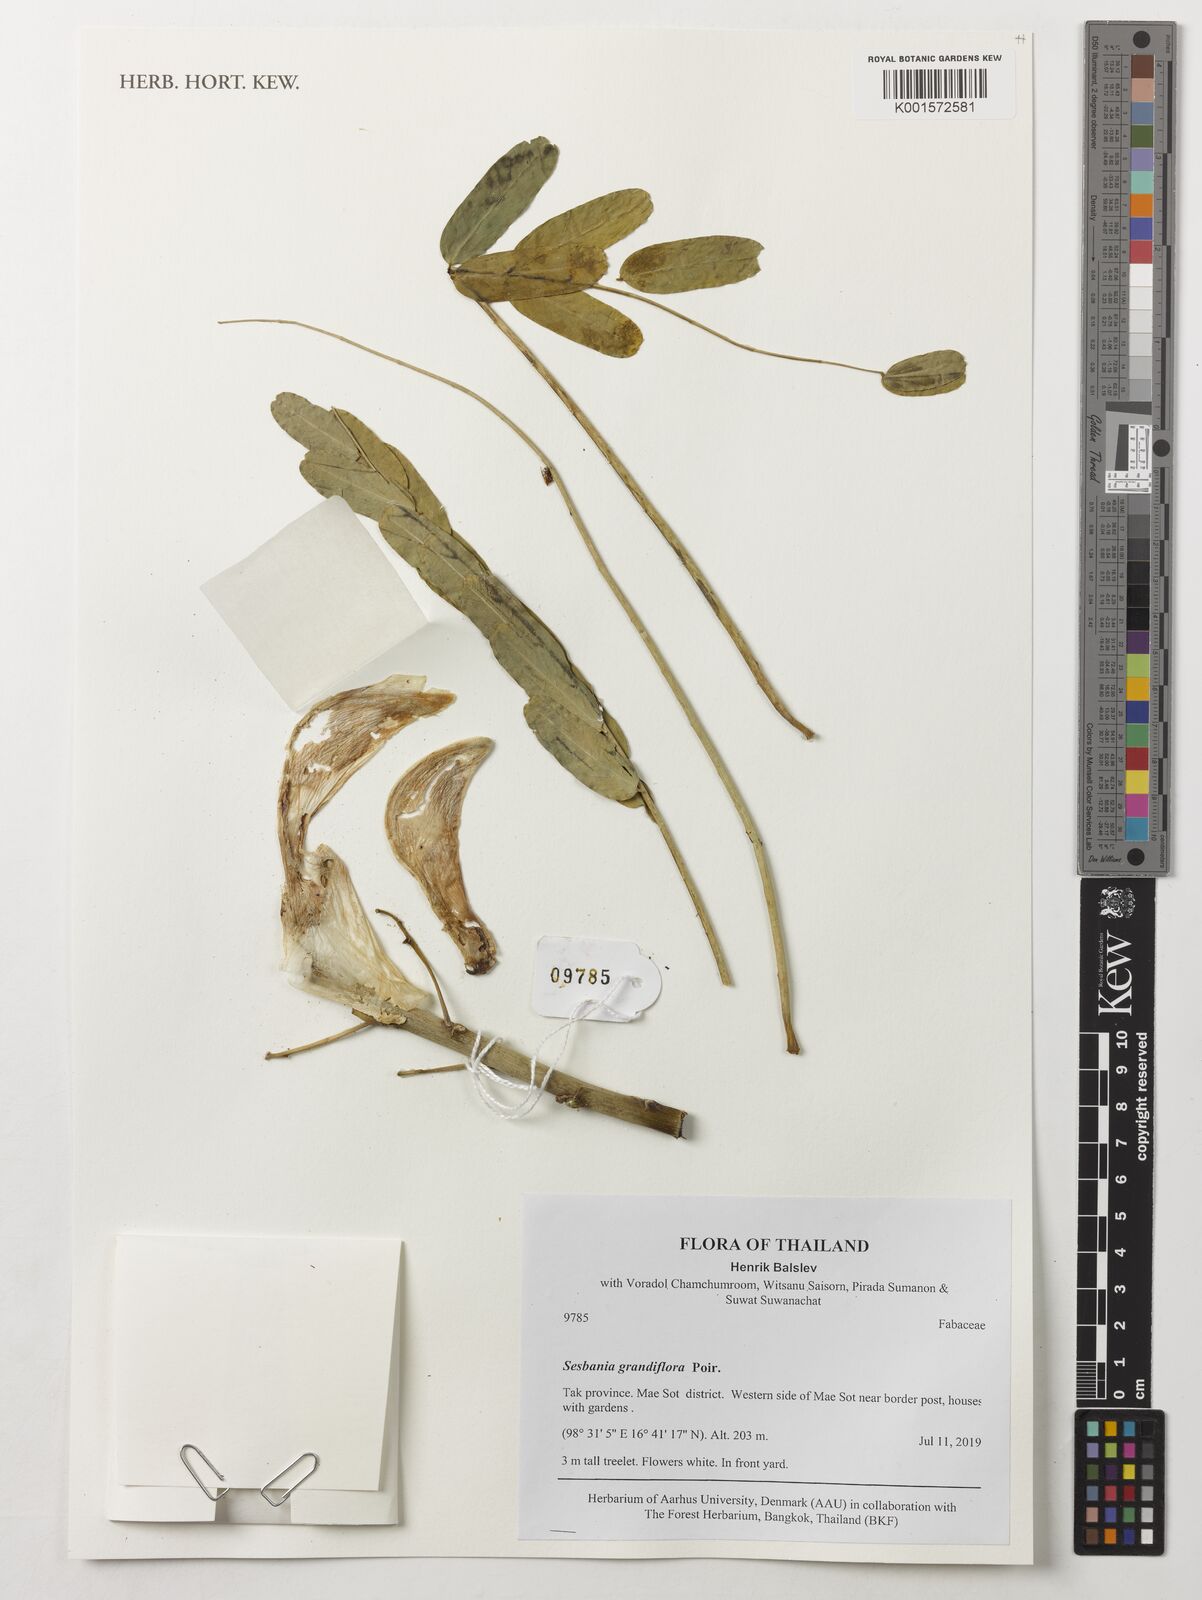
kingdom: Plantae
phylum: Tracheophyta
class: Magnoliopsida
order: Fabales
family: Fabaceae
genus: Sesbania
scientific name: Sesbania grandiflora
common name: Vegetable-hummingbird
